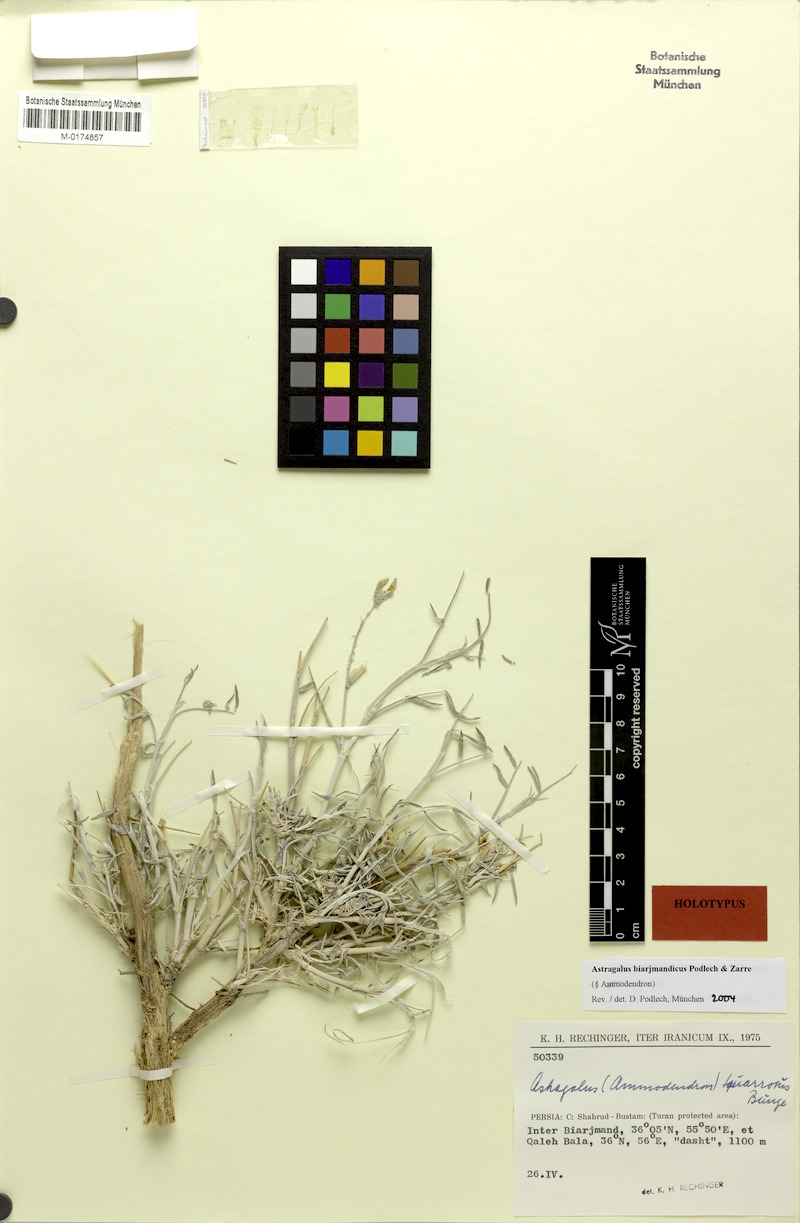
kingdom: Plantae
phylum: Tracheophyta
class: Magnoliopsida
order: Fabales
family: Fabaceae
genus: Astragalus
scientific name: Astragalus biarjmandicus
